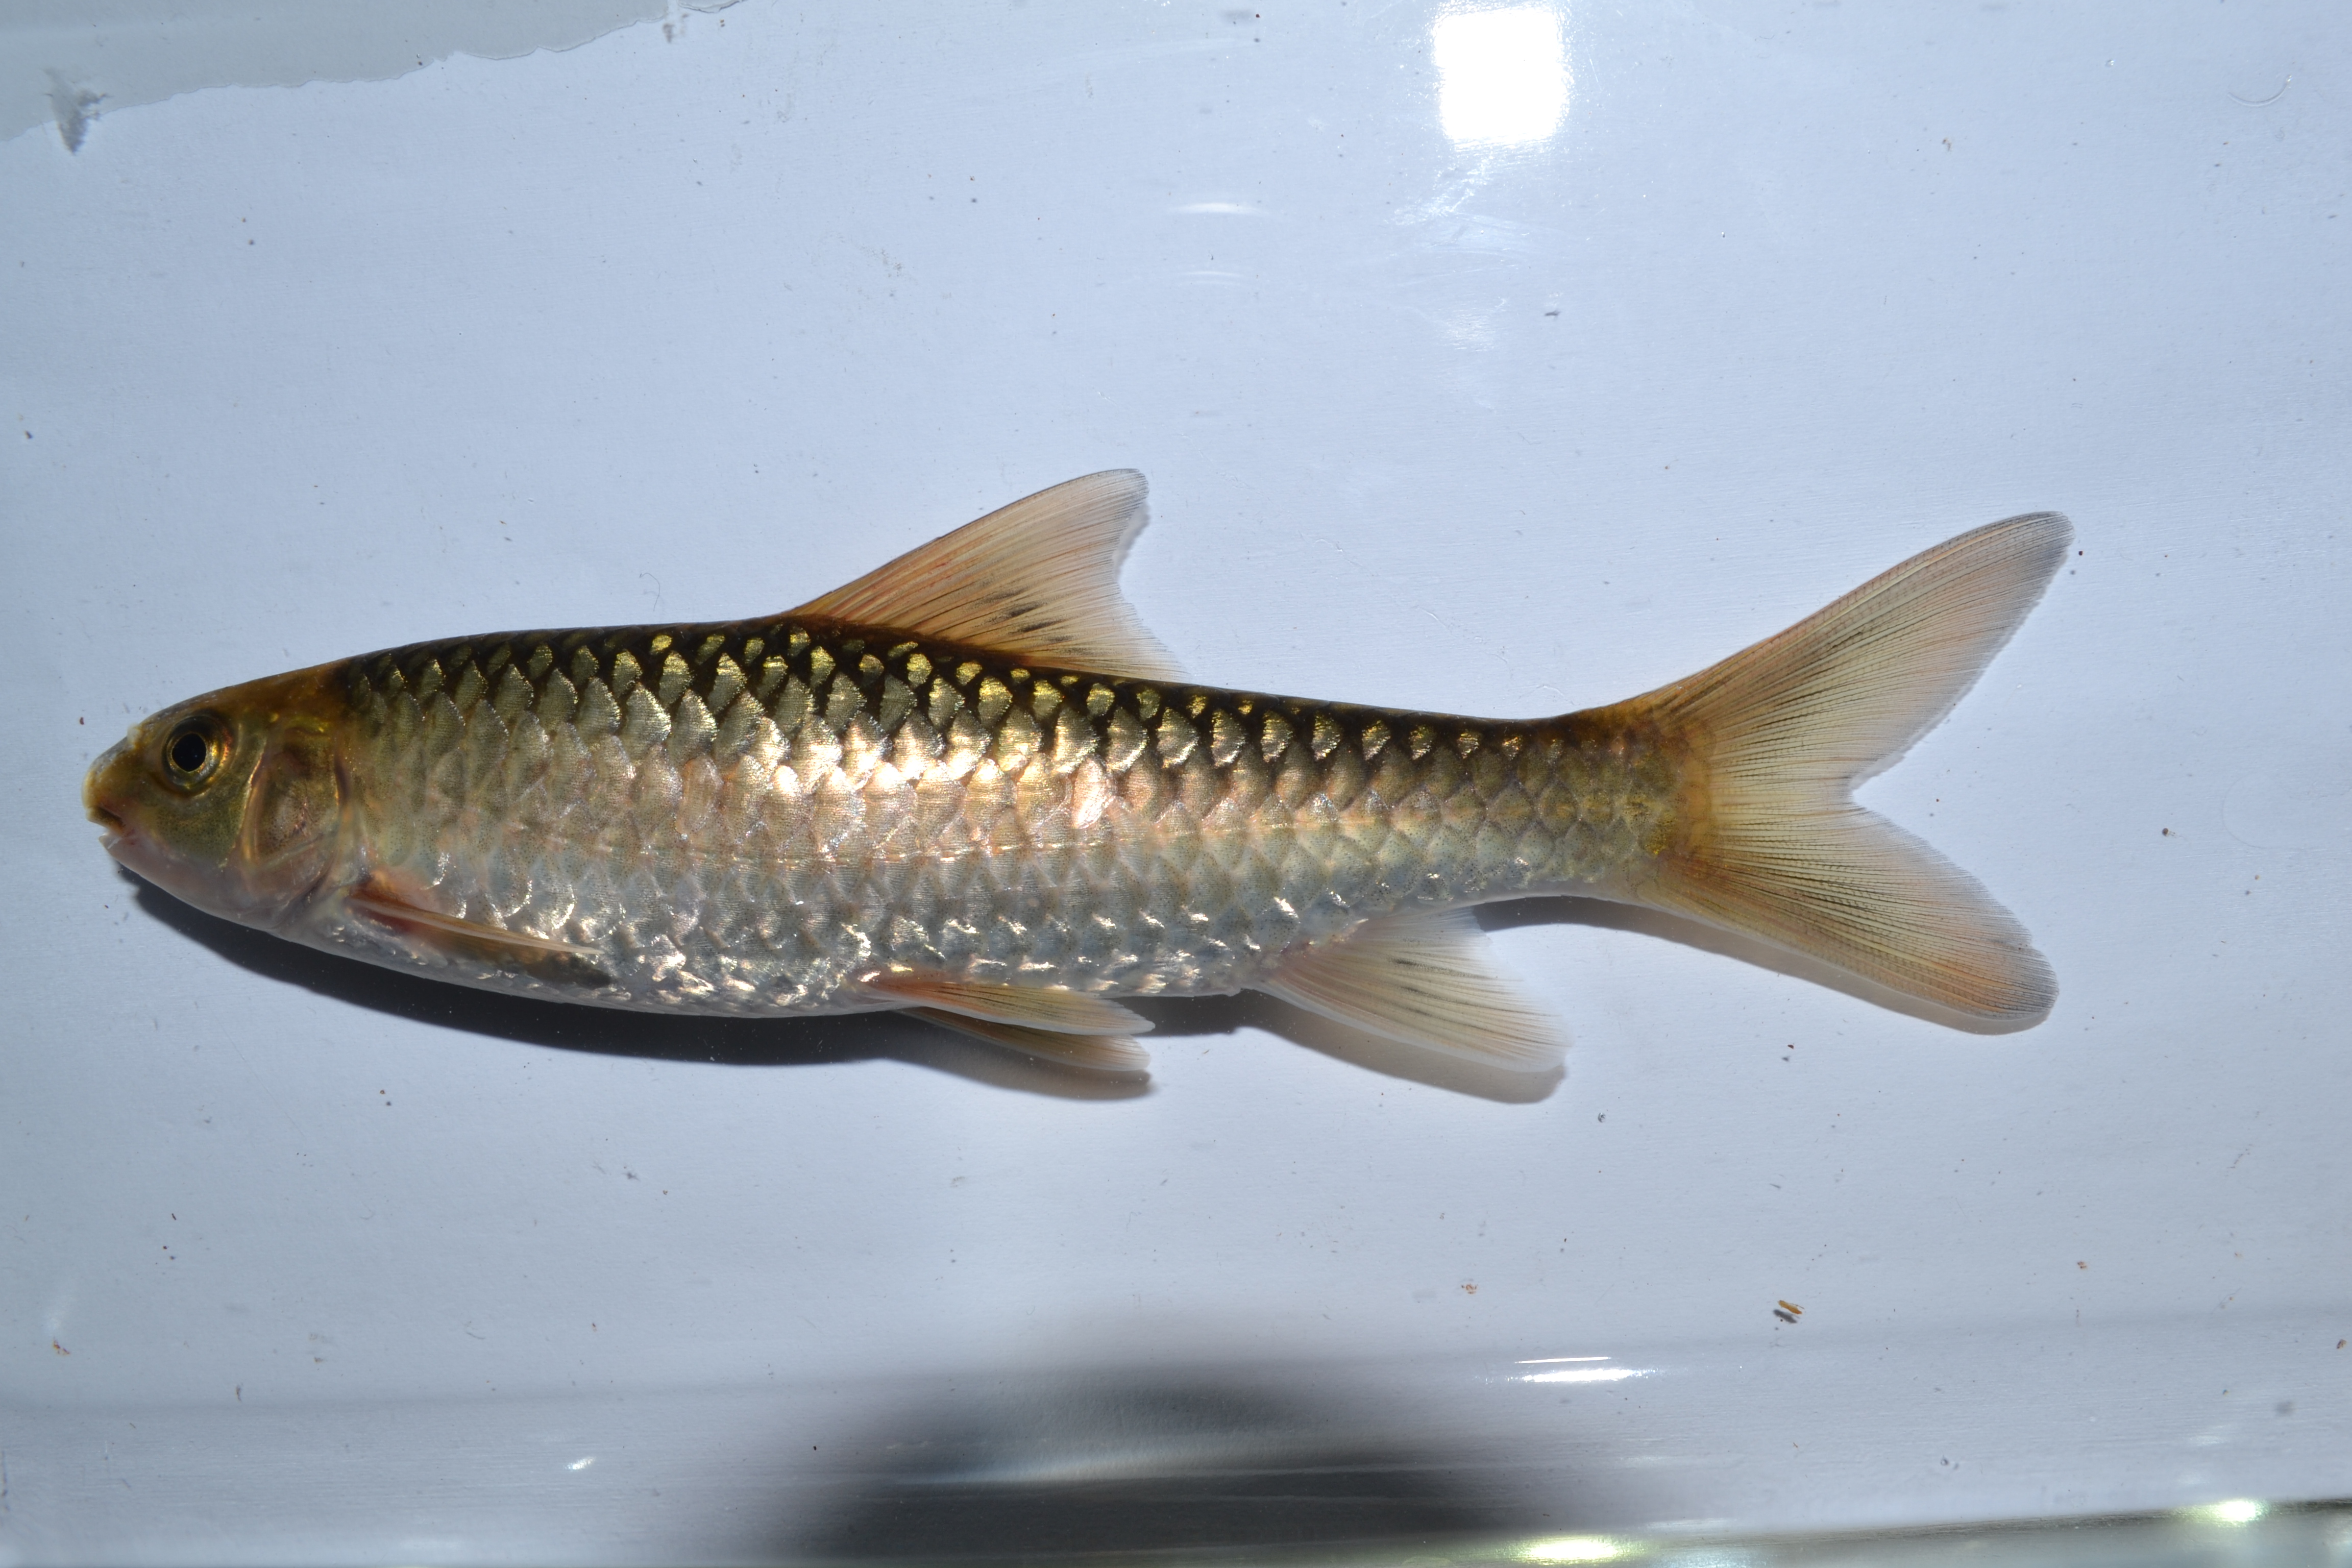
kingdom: Animalia
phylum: Chordata
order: Cypriniformes
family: Cyprinidae
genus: Labeobarbus
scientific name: Labeobarbus marequensis
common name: Largescale yellowfish
